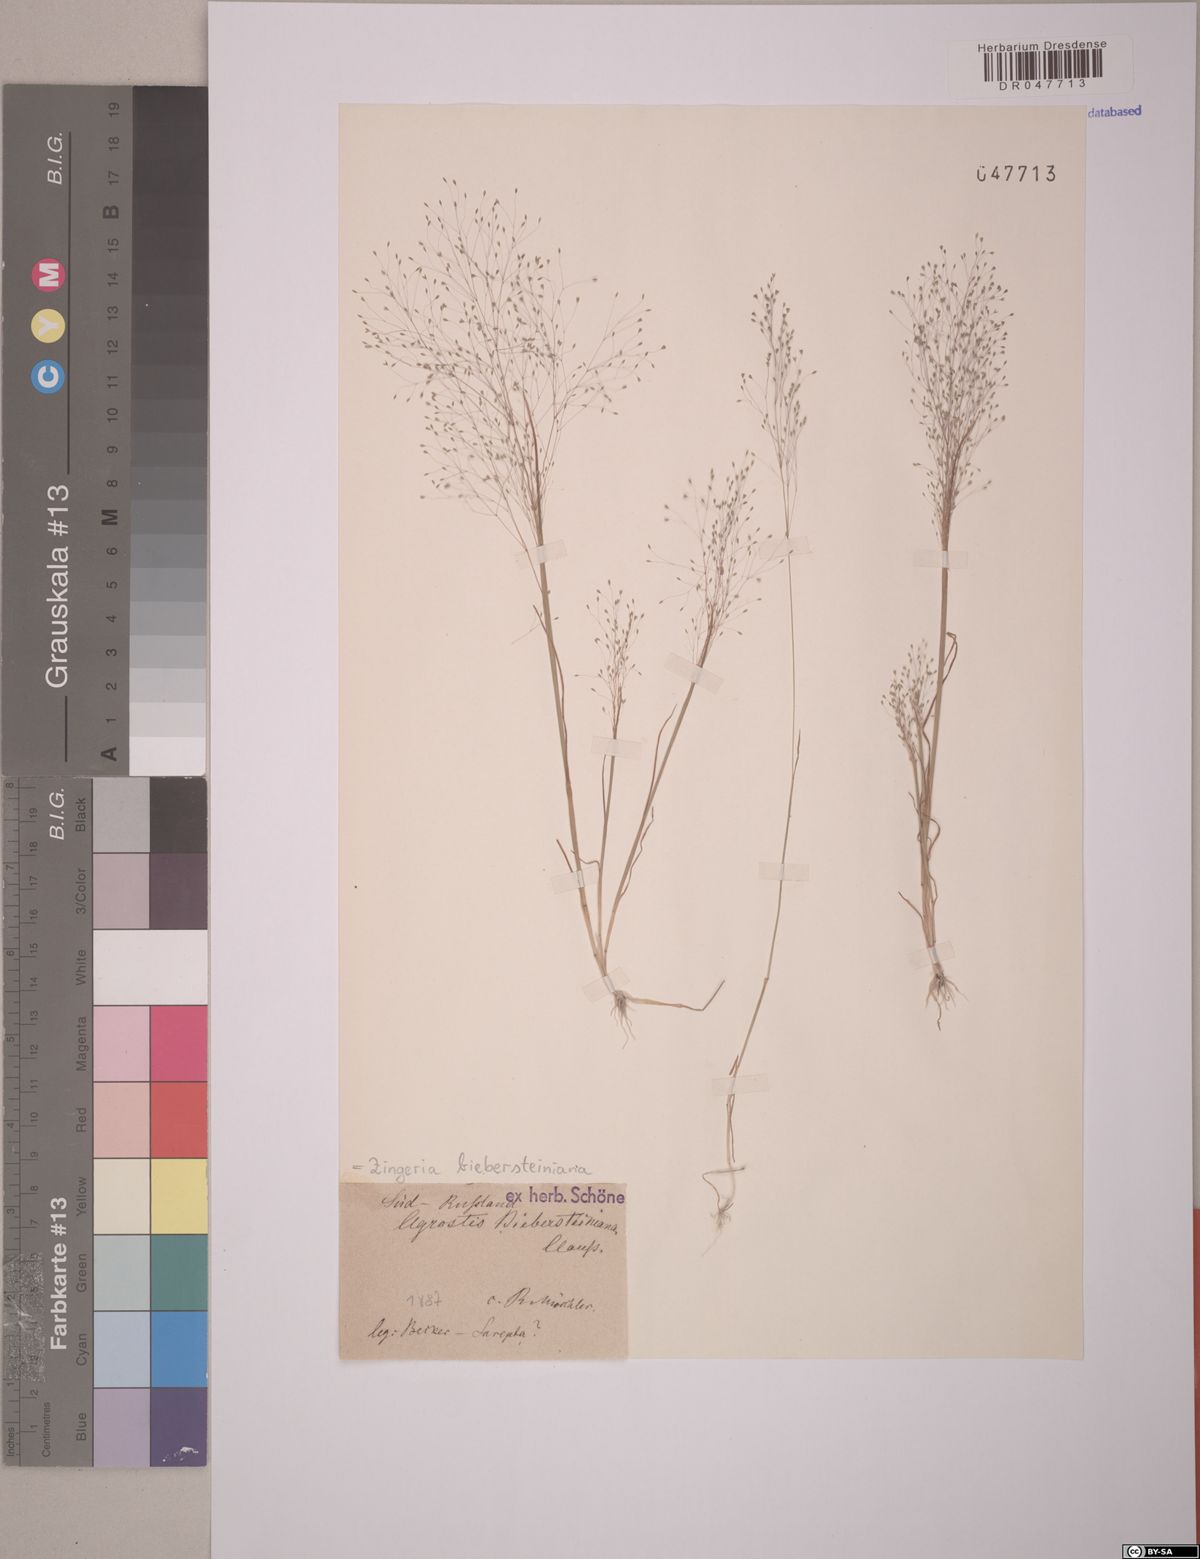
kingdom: Plantae
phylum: Tracheophyta
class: Liliopsida
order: Poales
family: Poaceae
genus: Colpodium
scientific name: Colpodium biebersteinianum
